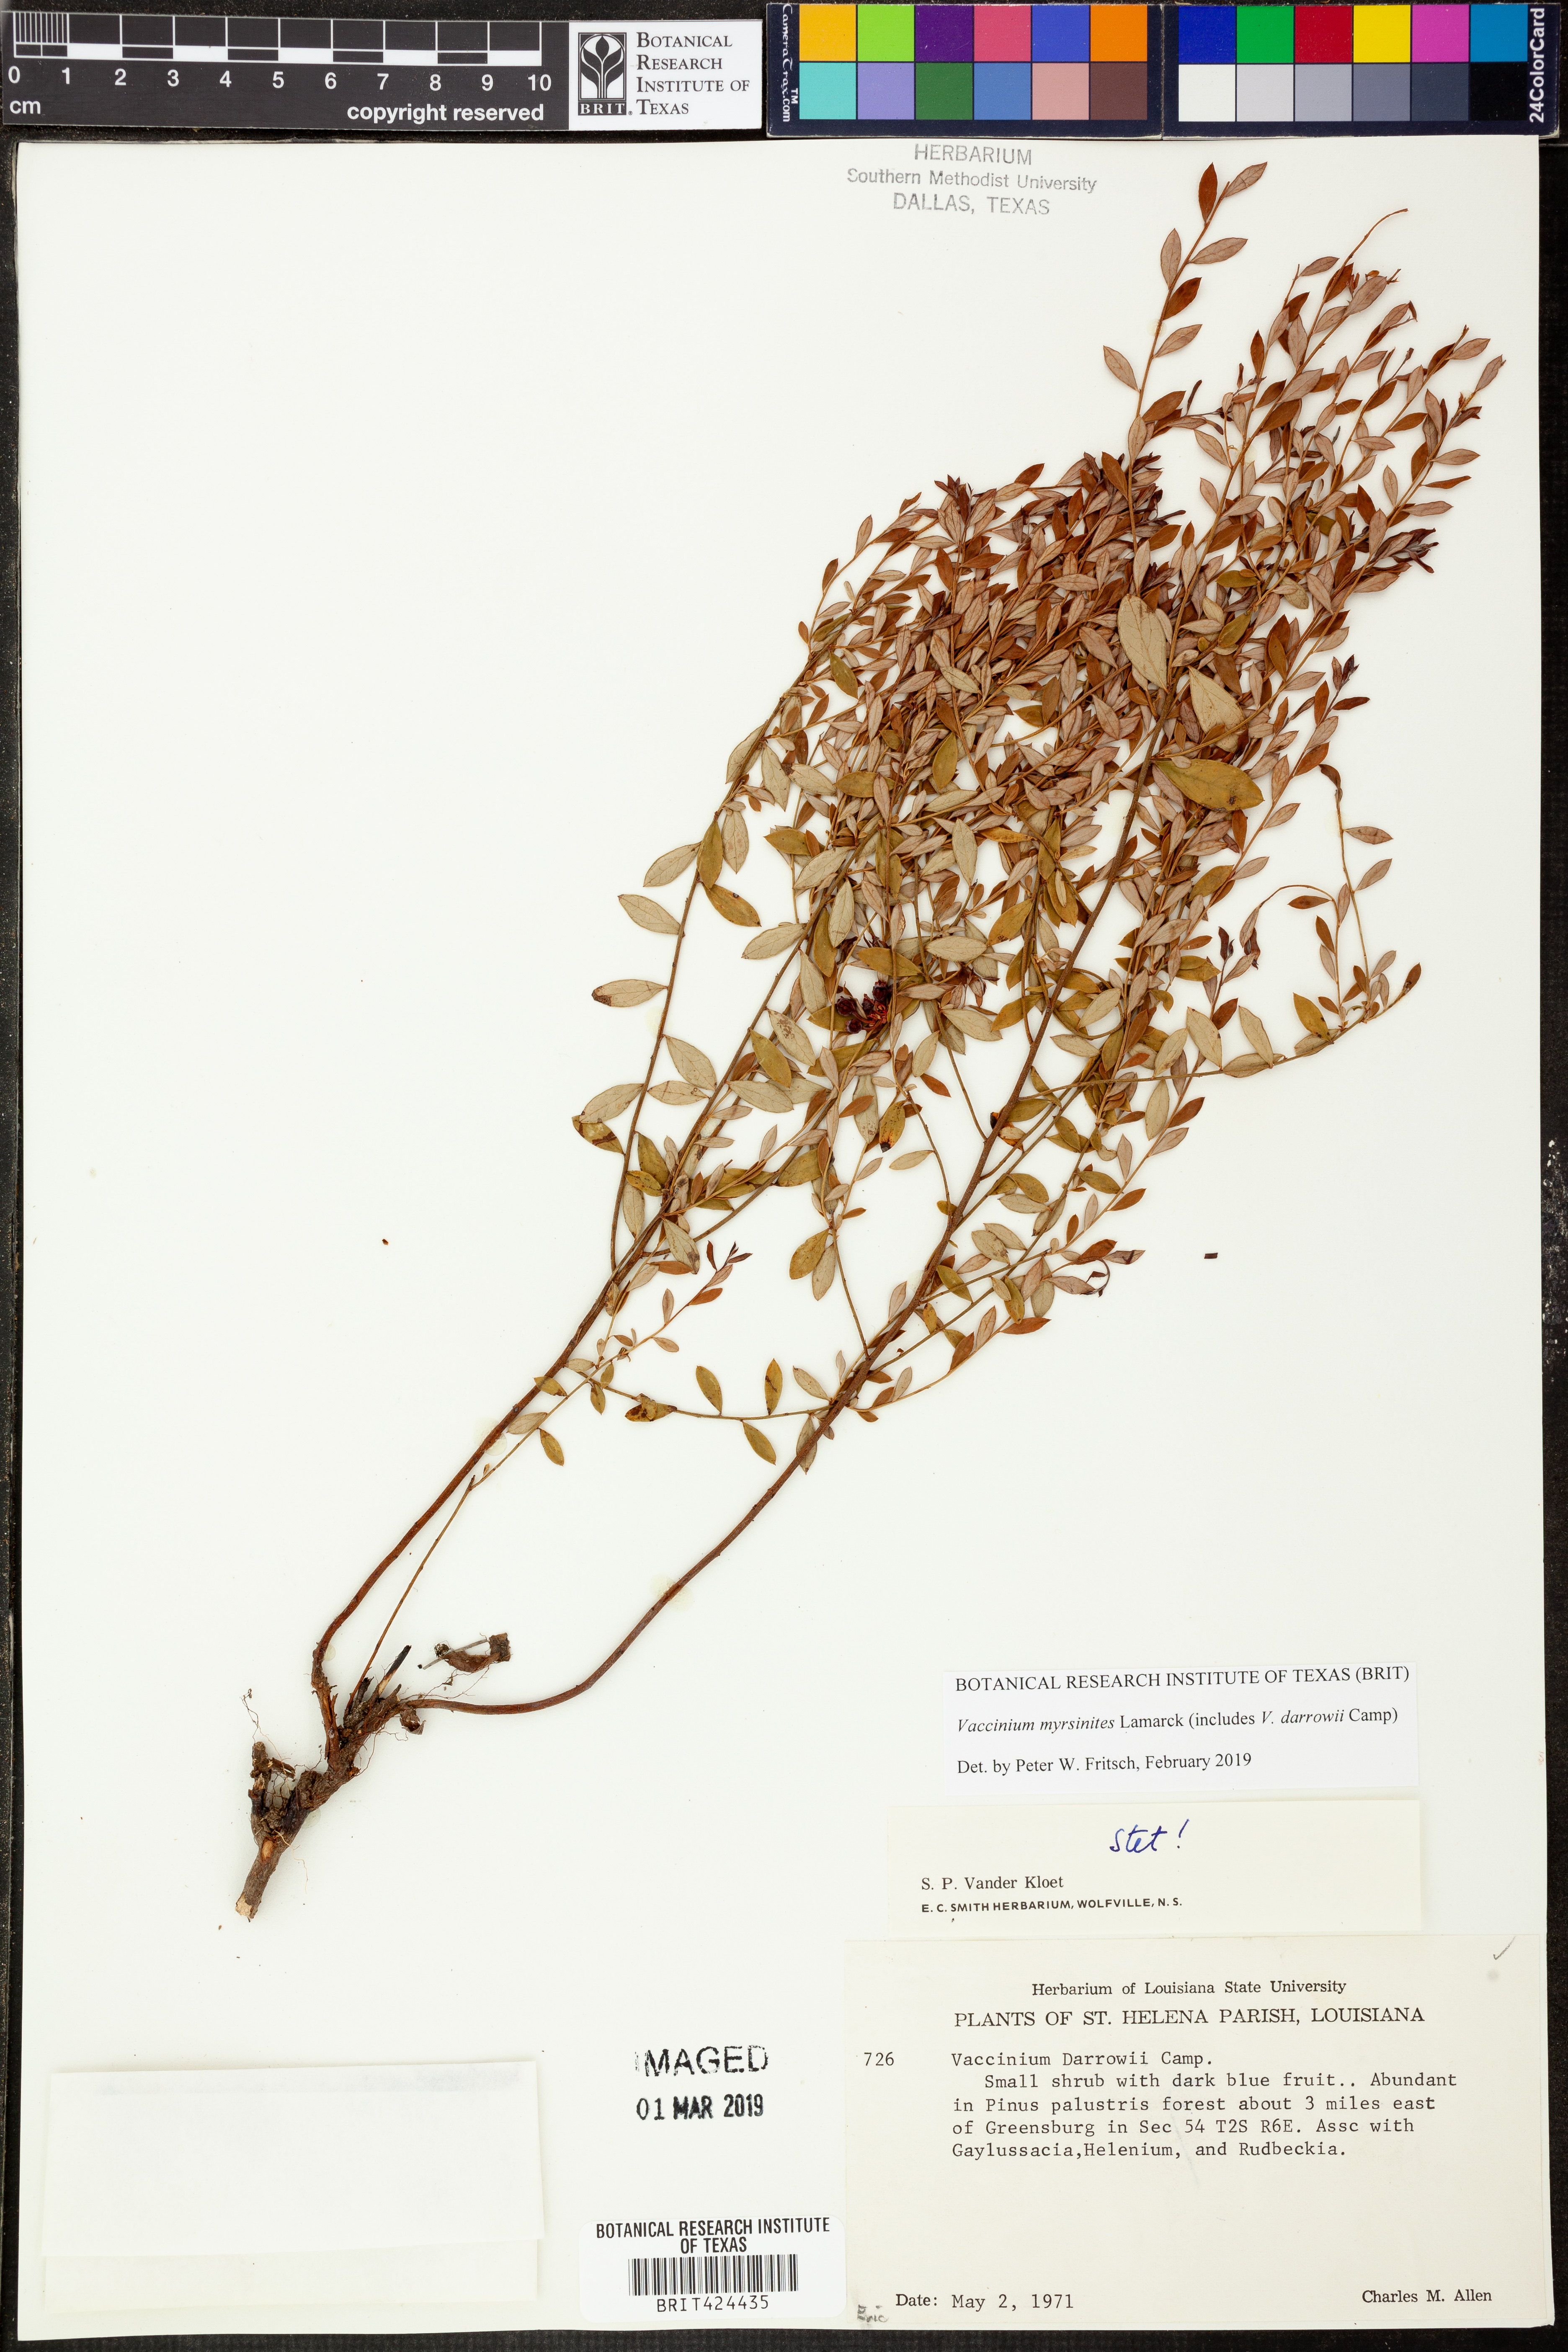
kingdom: Plantae
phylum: Tracheophyta
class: Magnoliopsida
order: Ericales
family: Ericaceae
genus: Vaccinium
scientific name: Vaccinium myrsinites
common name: Evergreen blueberry
